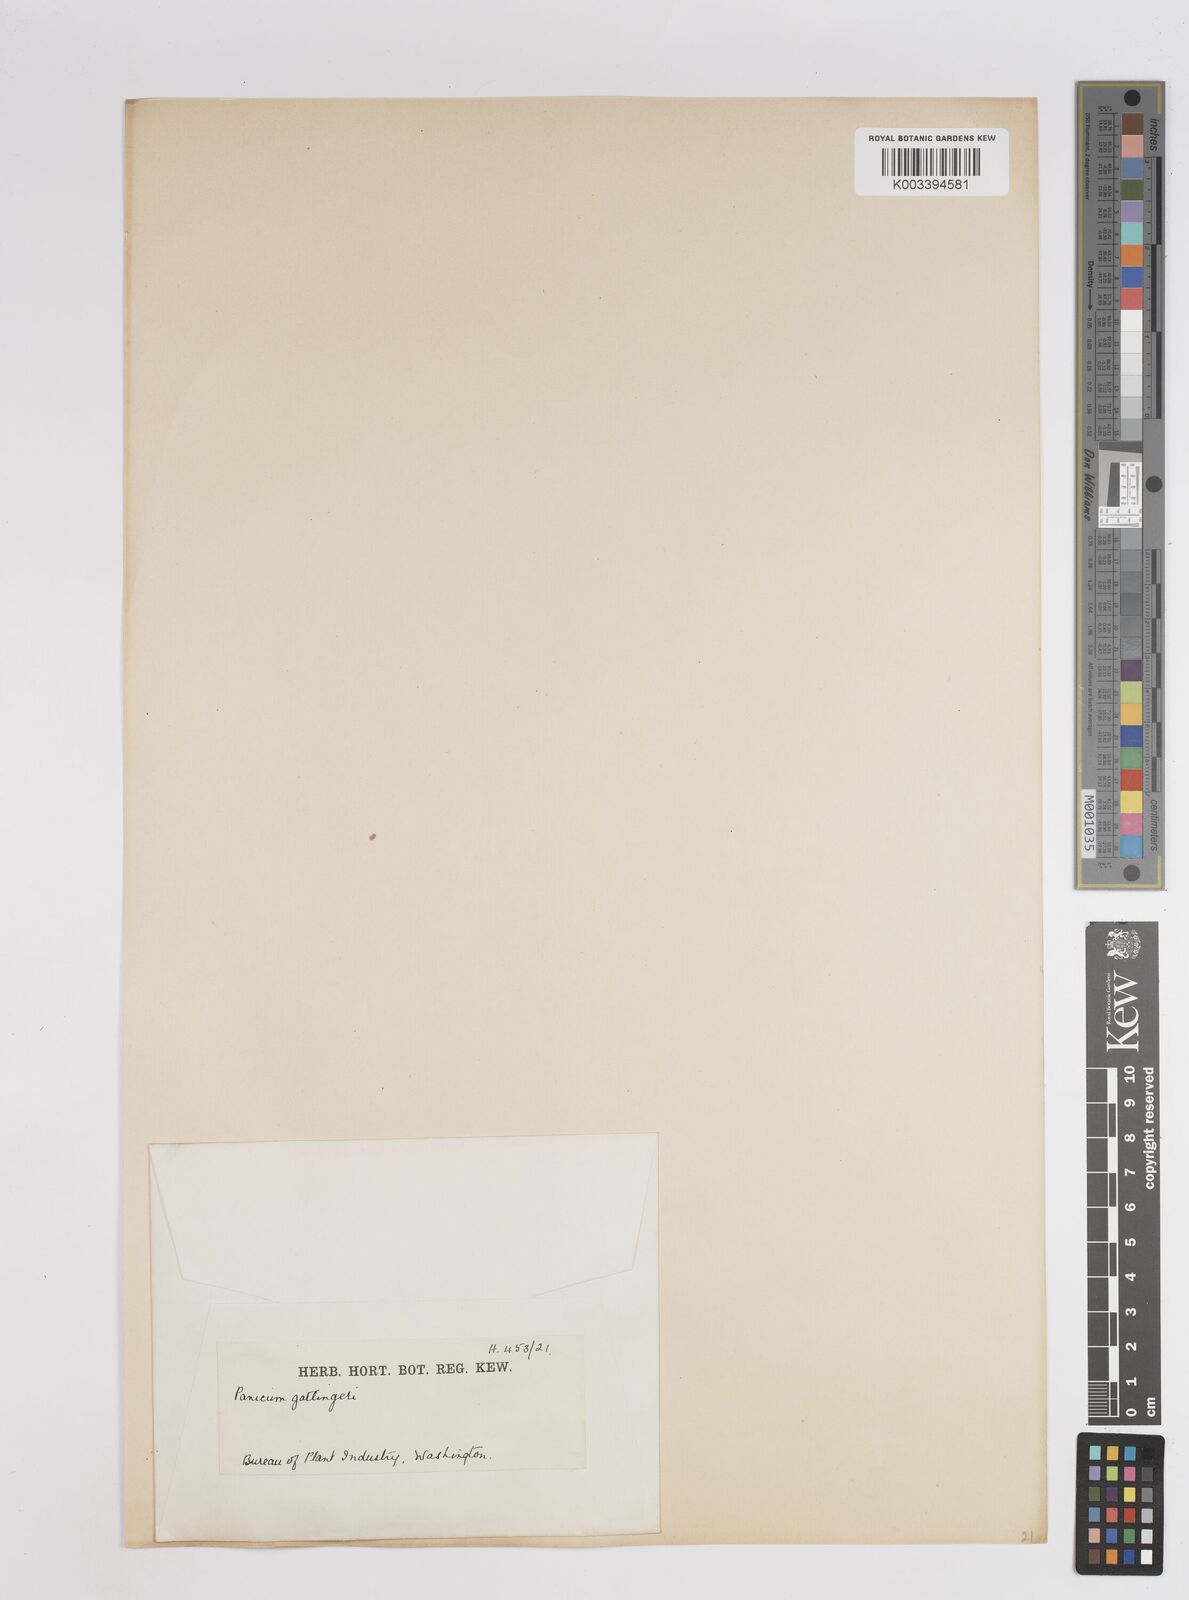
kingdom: Plantae
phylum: Tracheophyta
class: Liliopsida
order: Poales
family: Poaceae
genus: Panicum
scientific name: Panicum gattingeri
